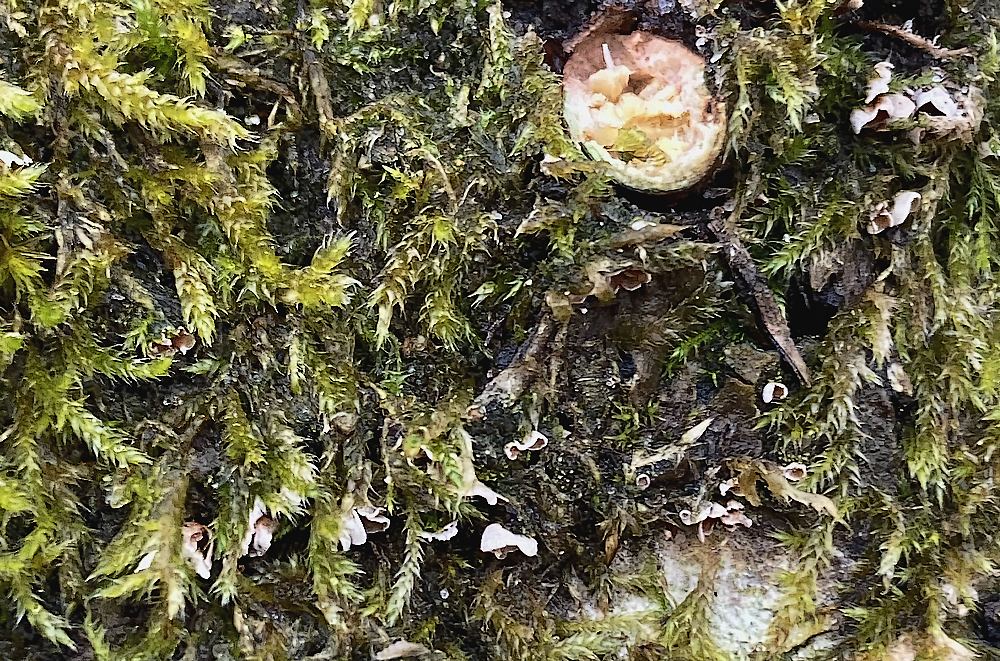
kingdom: Fungi
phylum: Basidiomycota
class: Agaricomycetes
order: Agaricales
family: Chromocyphellaceae
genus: Chromocyphella
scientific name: Chromocyphella muscicola
